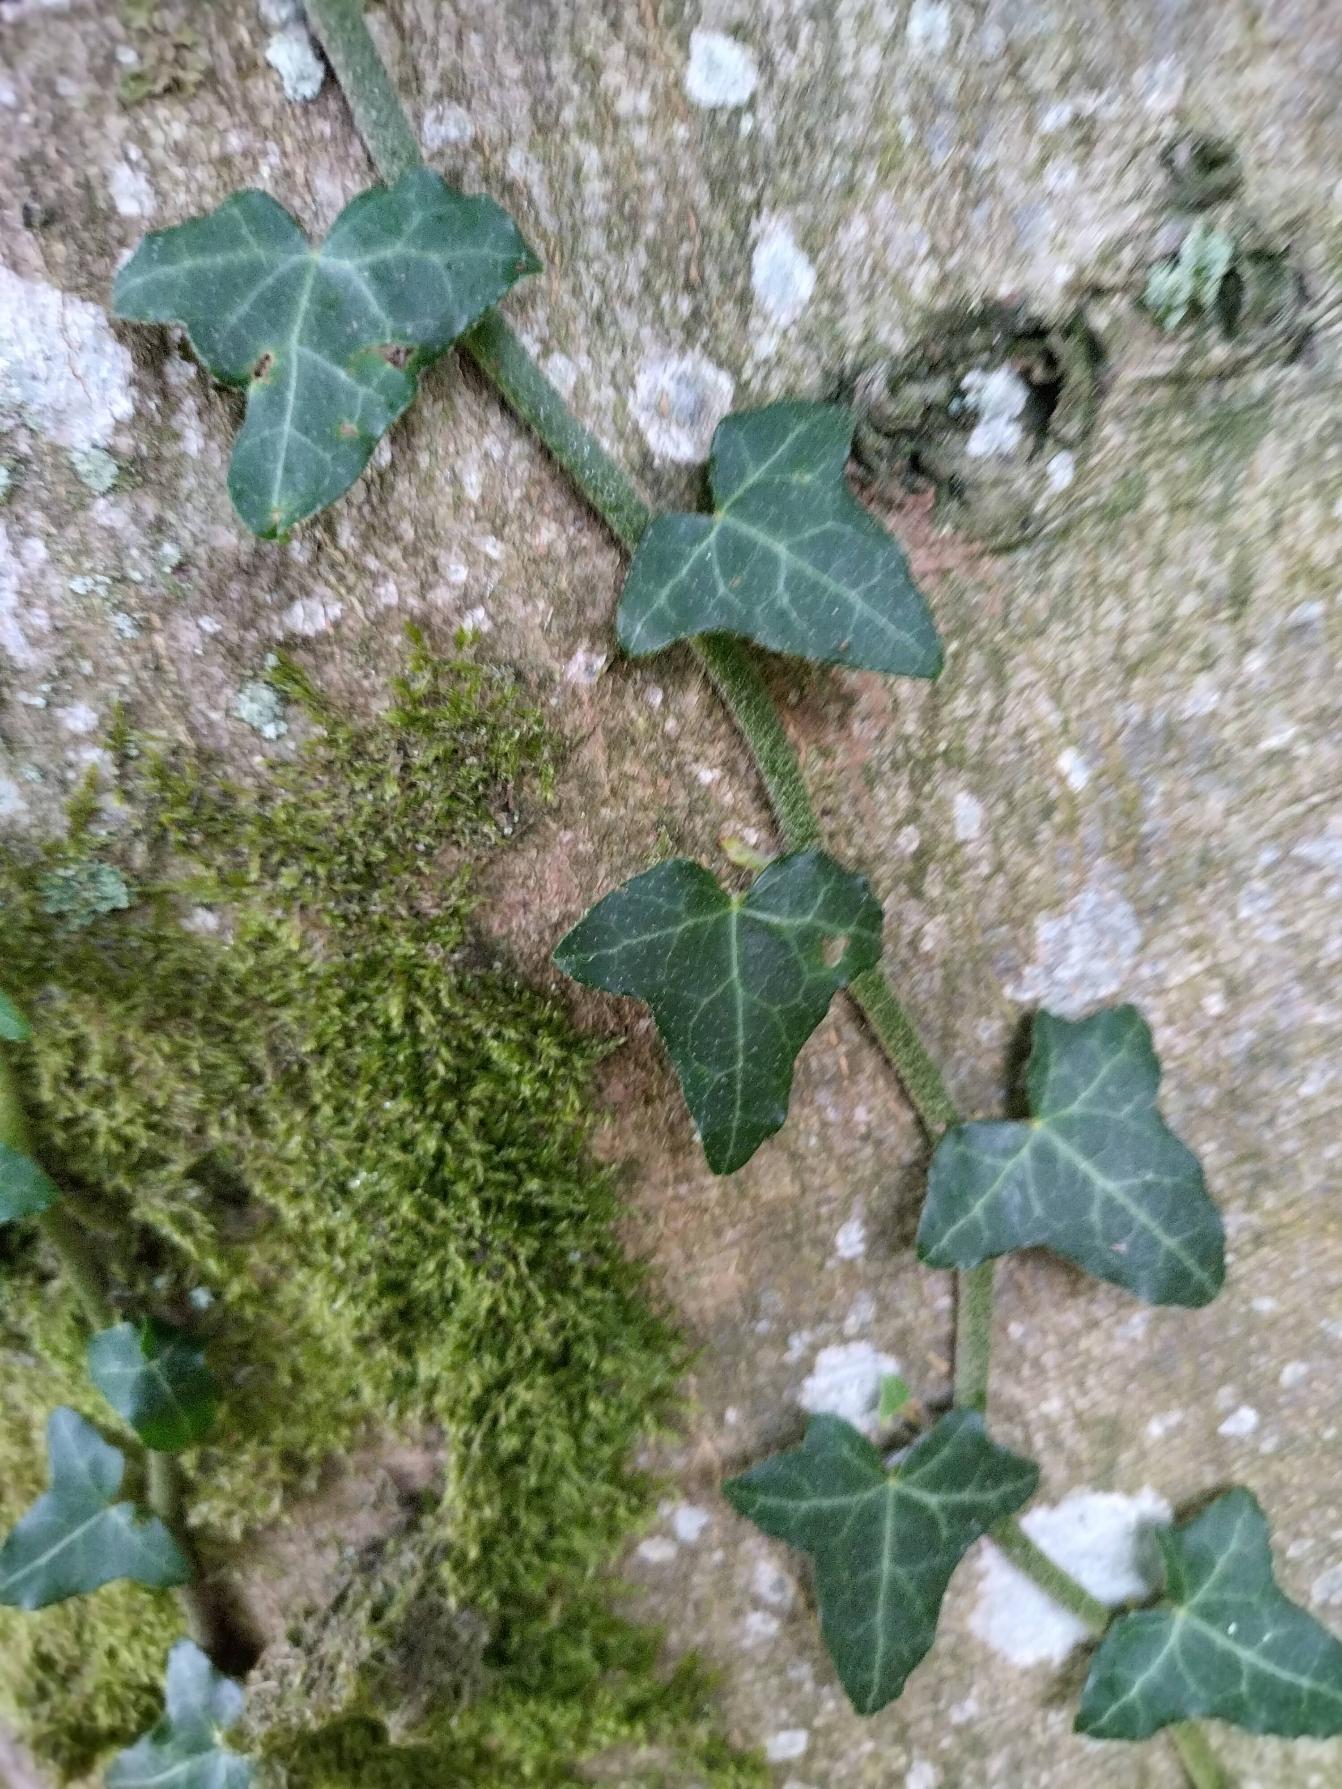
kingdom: Plantae
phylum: Tracheophyta
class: Magnoliopsida
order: Apiales
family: Araliaceae
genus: Hedera
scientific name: Hedera helix
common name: Vedbend
